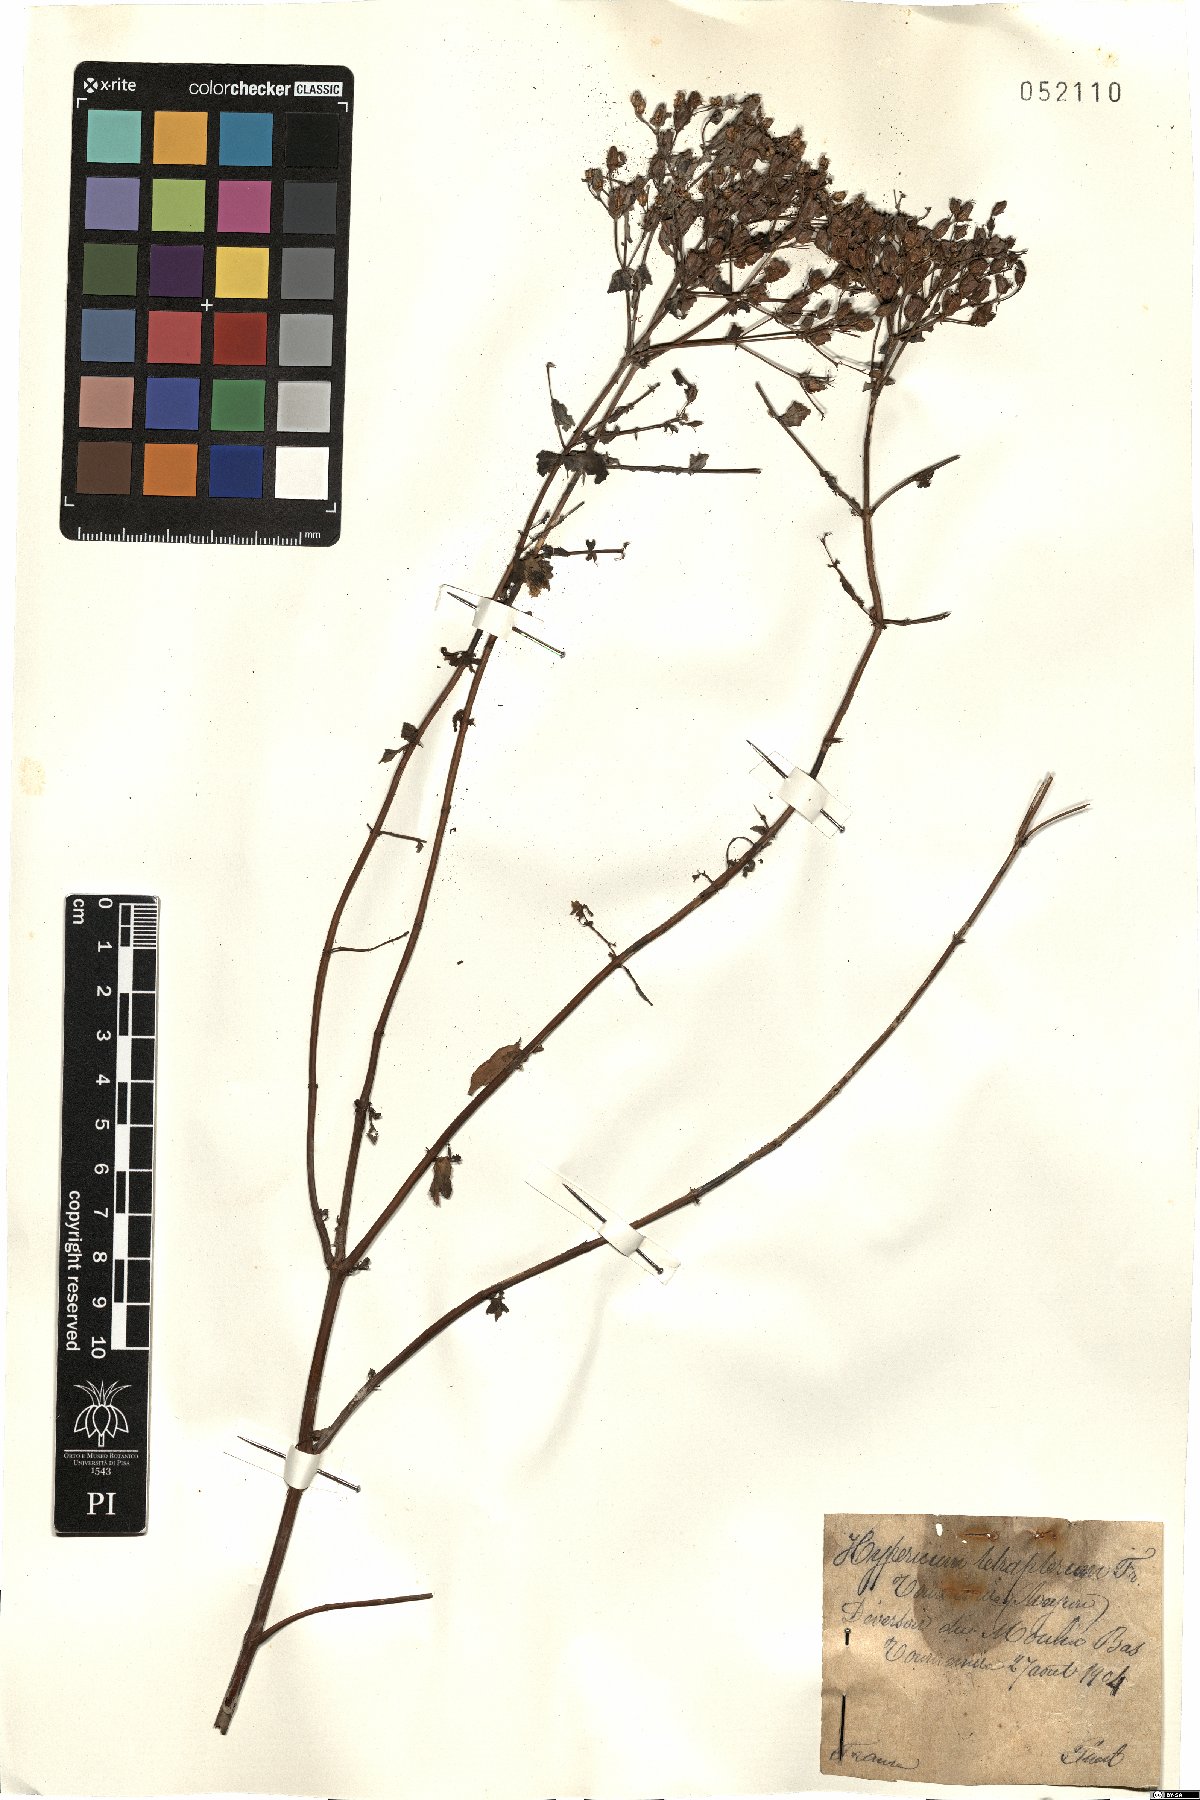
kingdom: Plantae
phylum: Tracheophyta
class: Magnoliopsida
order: Malpighiales
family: Hypericaceae
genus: Hypericum
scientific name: Hypericum tetrapterum
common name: Square-stalked st. john's-wort
